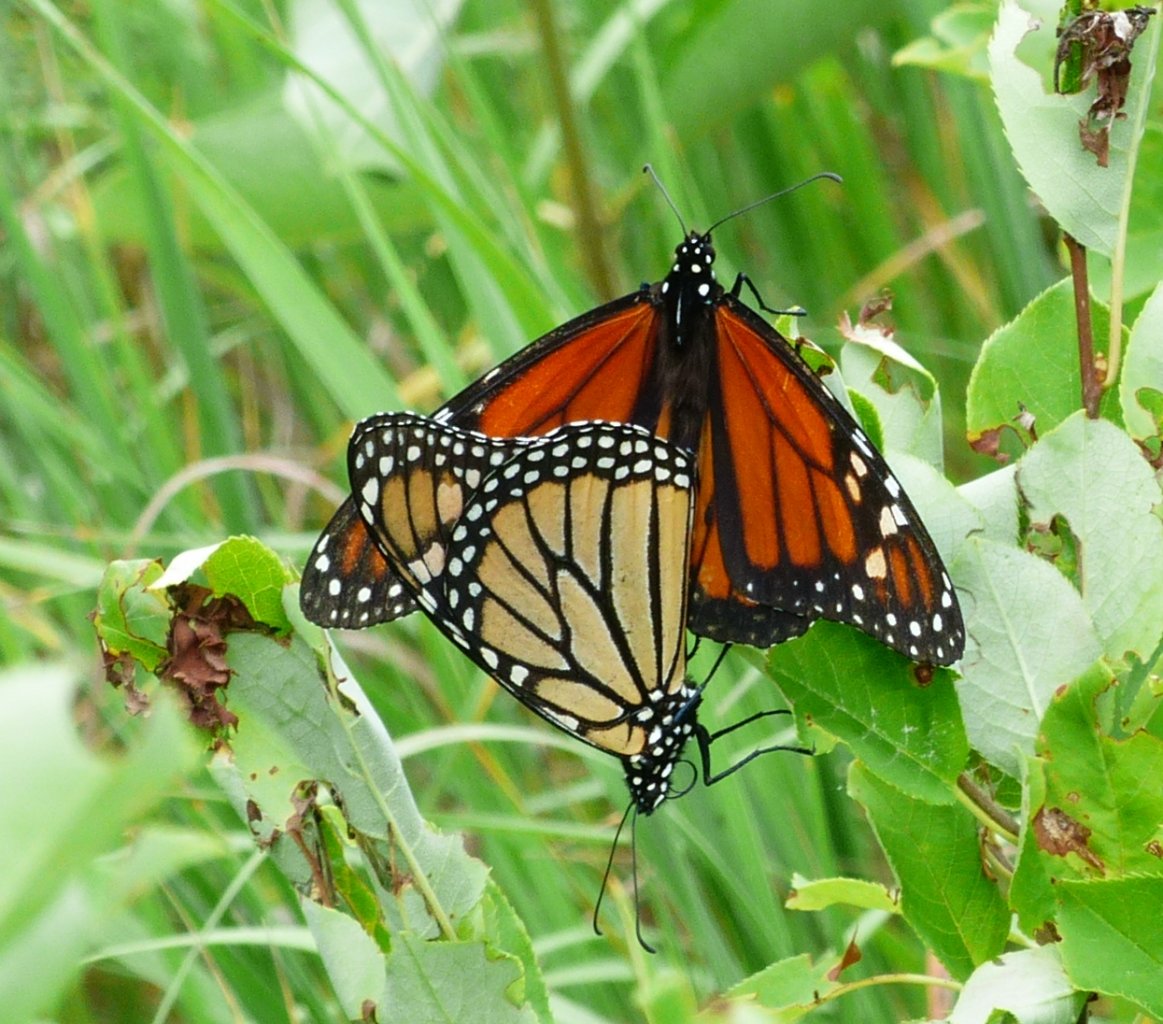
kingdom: Animalia
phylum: Arthropoda
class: Insecta
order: Lepidoptera
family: Nymphalidae
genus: Danaus
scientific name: Danaus plexippus
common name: Monarch
